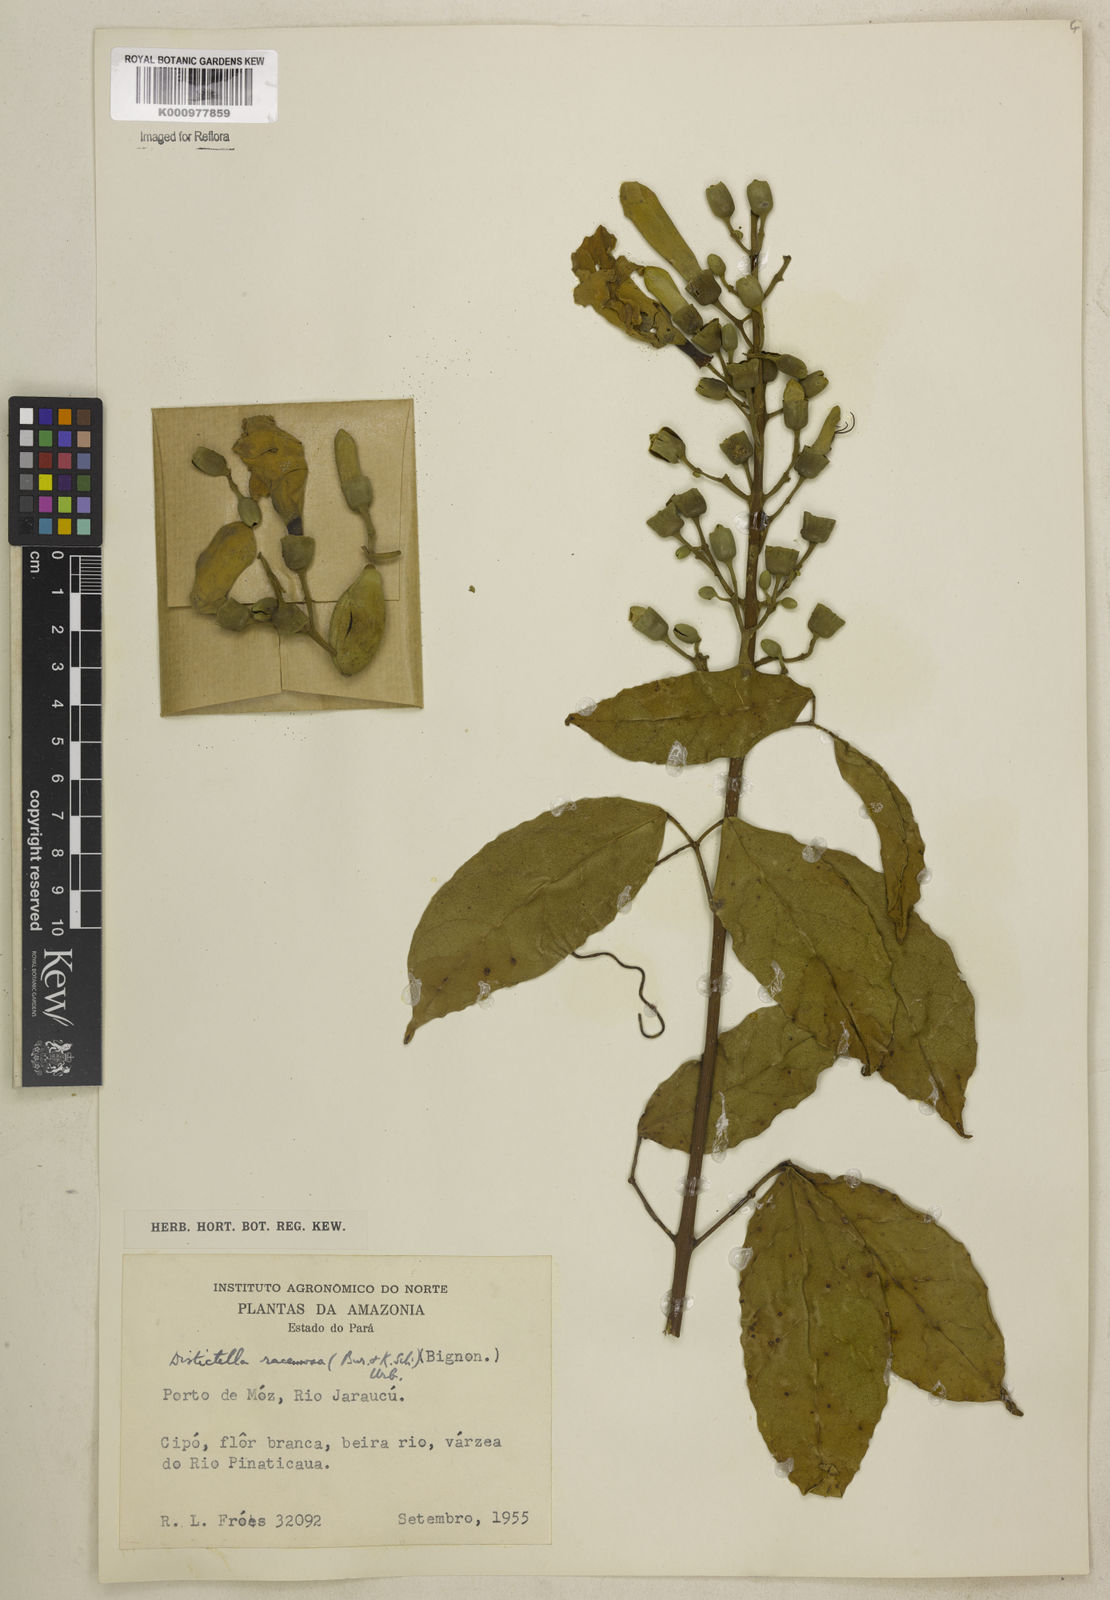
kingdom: Plantae
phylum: Tracheophyta
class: Magnoliopsida
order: Lamiales
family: Bignoniaceae
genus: Amphilophium
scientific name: Amphilophium racemosum
